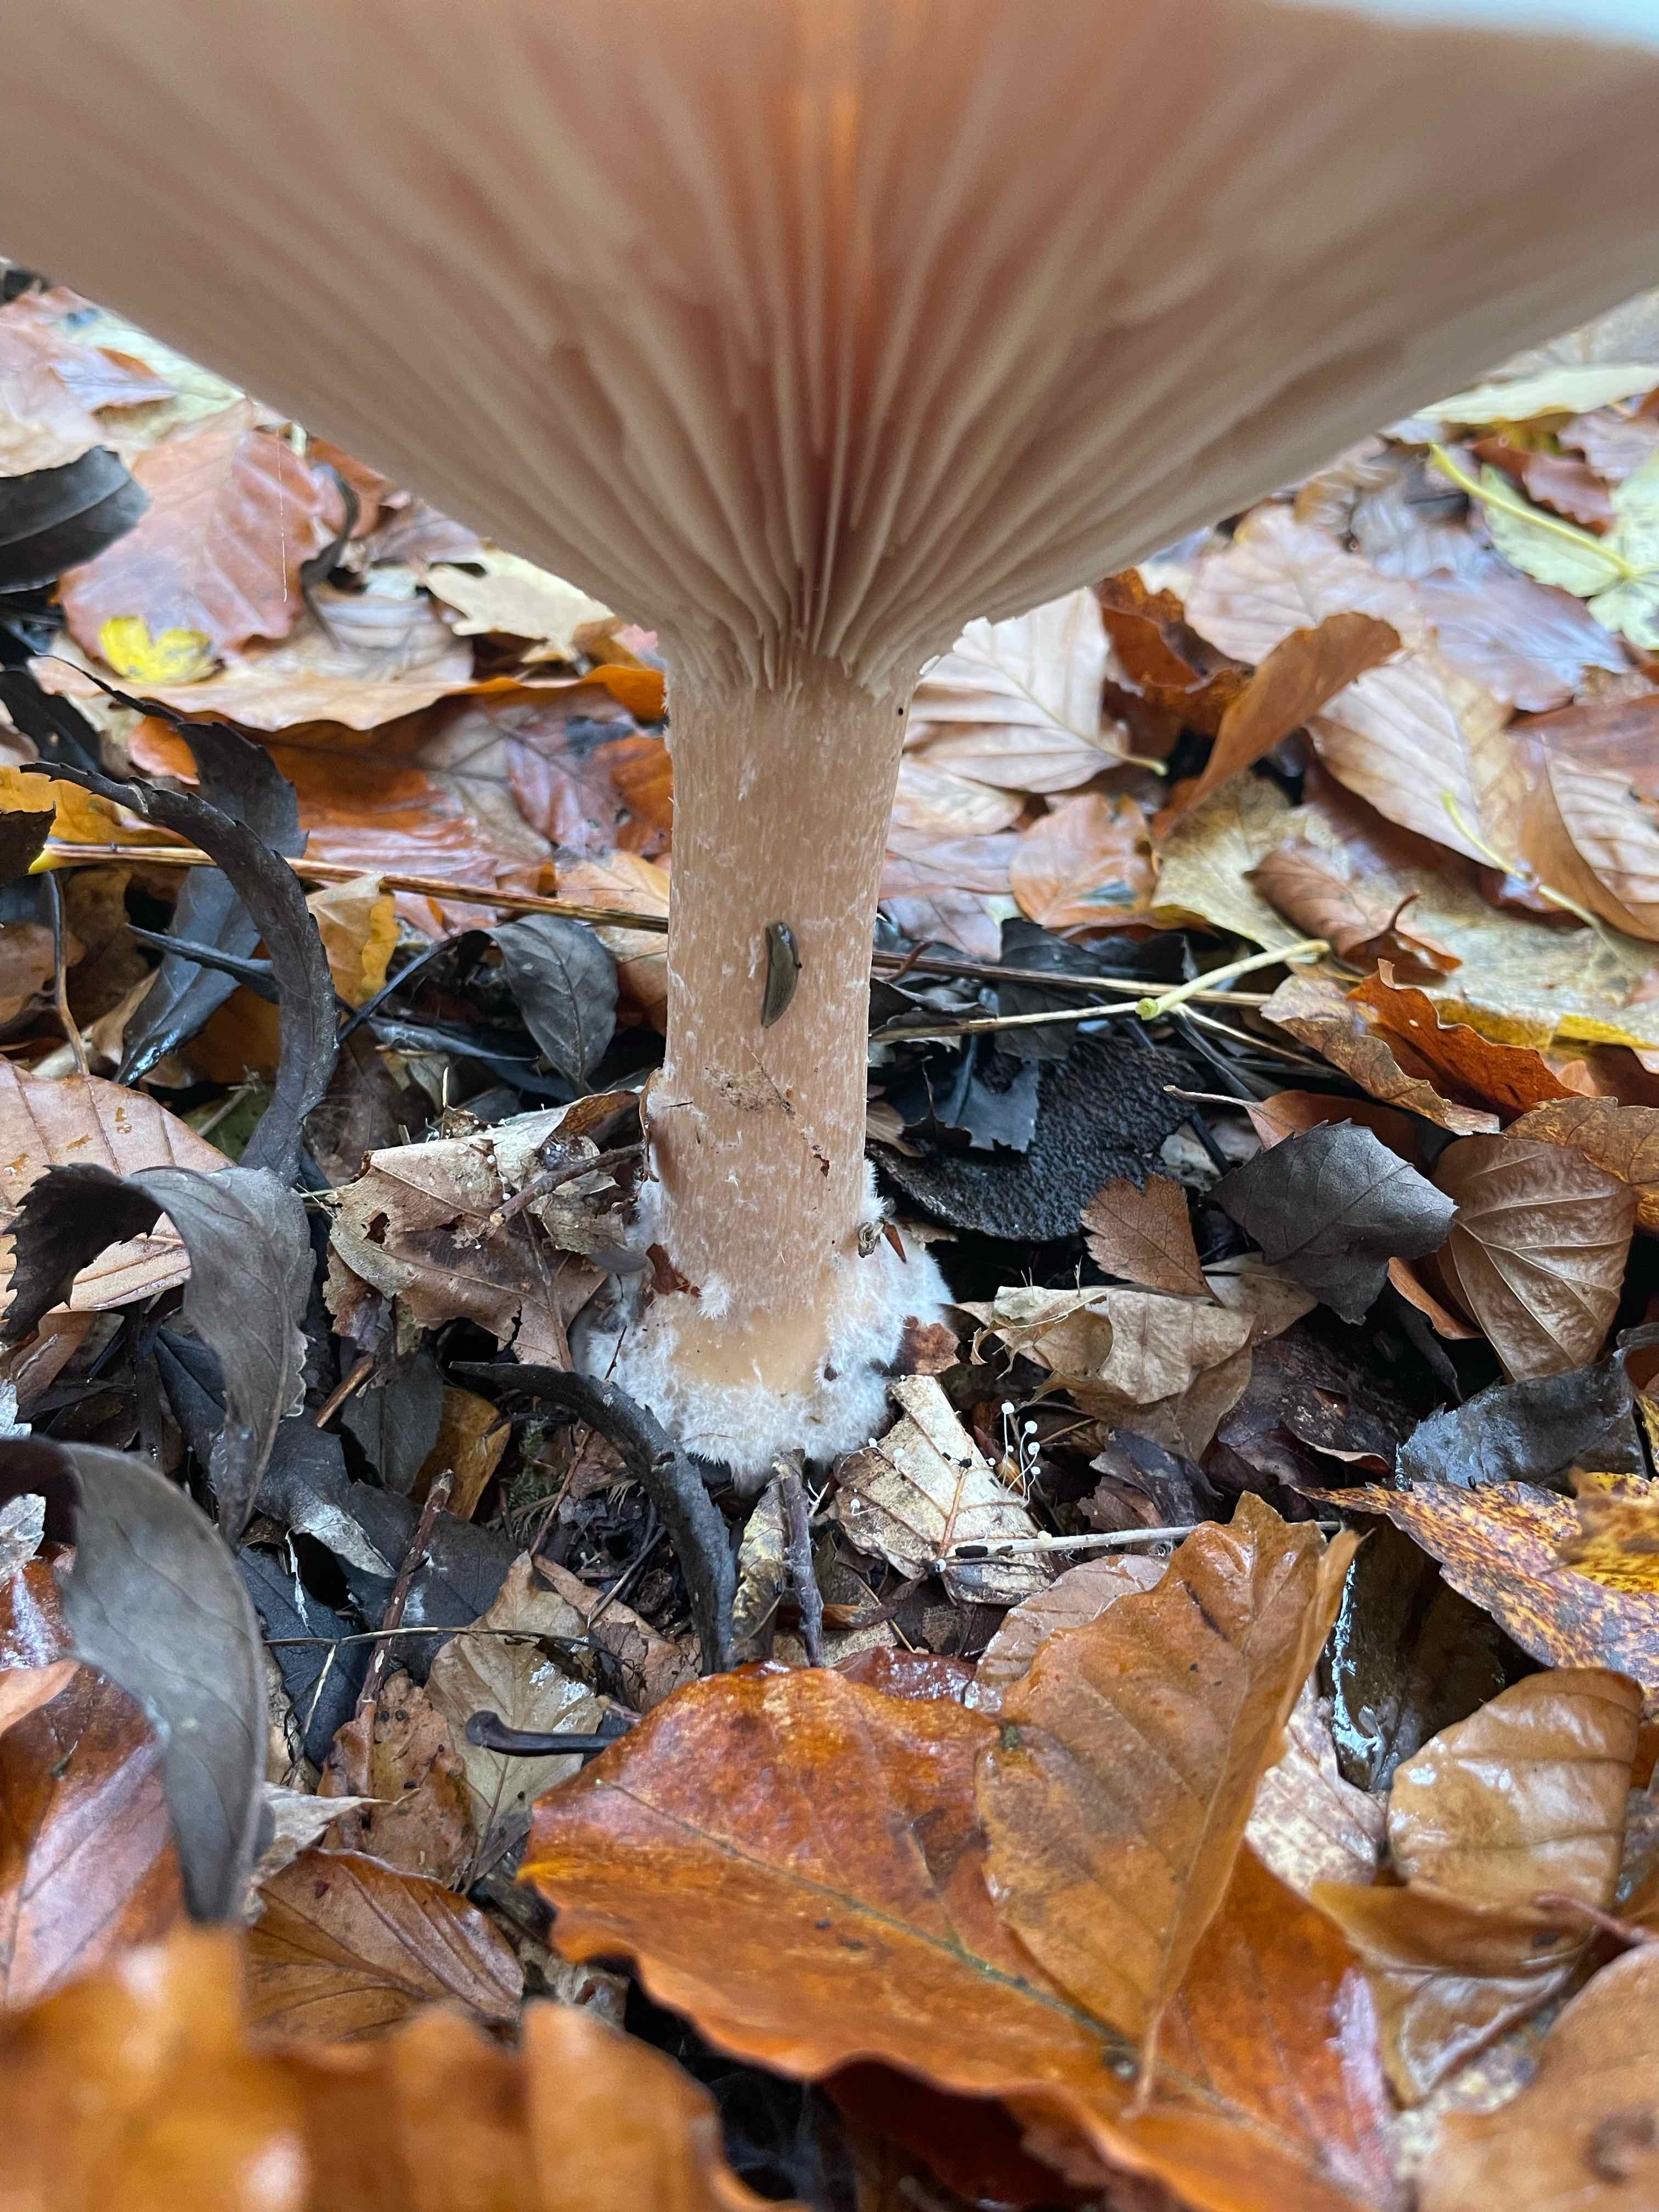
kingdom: Fungi
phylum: Basidiomycota
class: Agaricomycetes
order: Agaricales
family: Tricholomataceae
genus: Infundibulicybe
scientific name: Infundibulicybe geotropa
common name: stor tragthat
